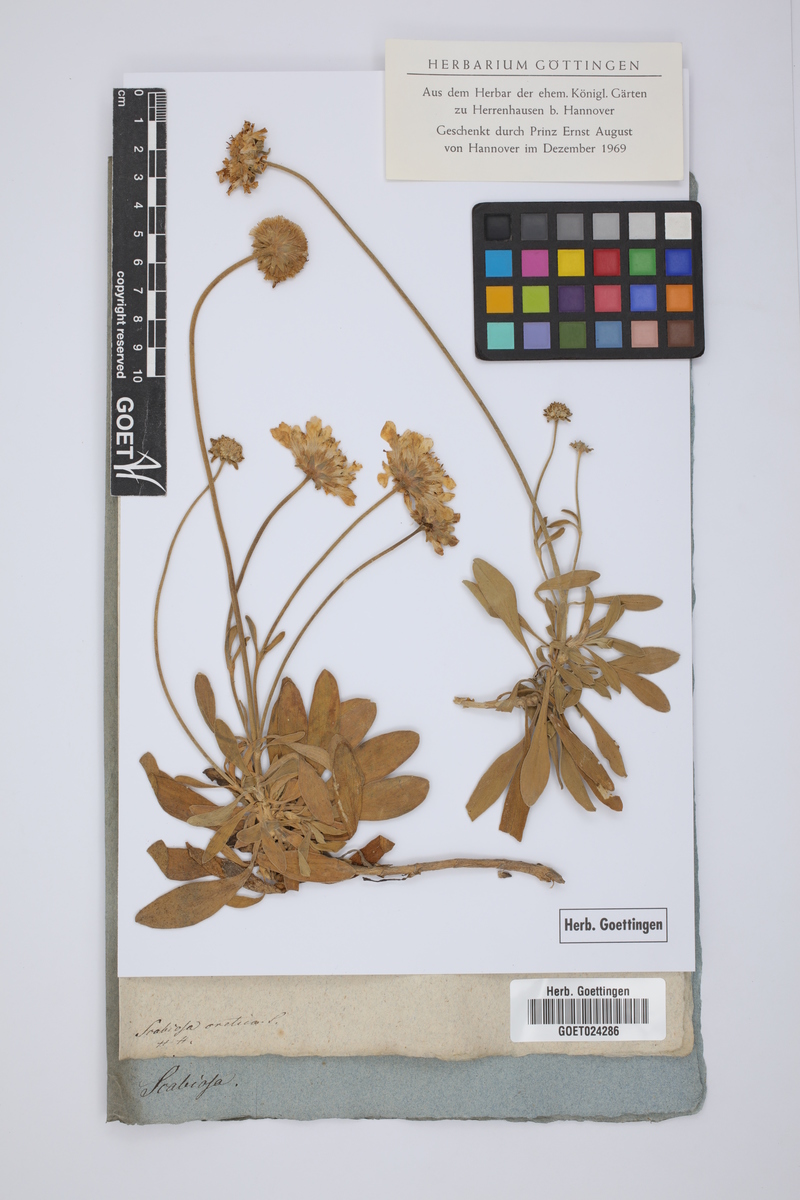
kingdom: Plantae
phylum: Tracheophyta
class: Magnoliopsida
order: Dipsacales
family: Caprifoliaceae
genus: Lomelosia
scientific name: Lomelosia cretica
